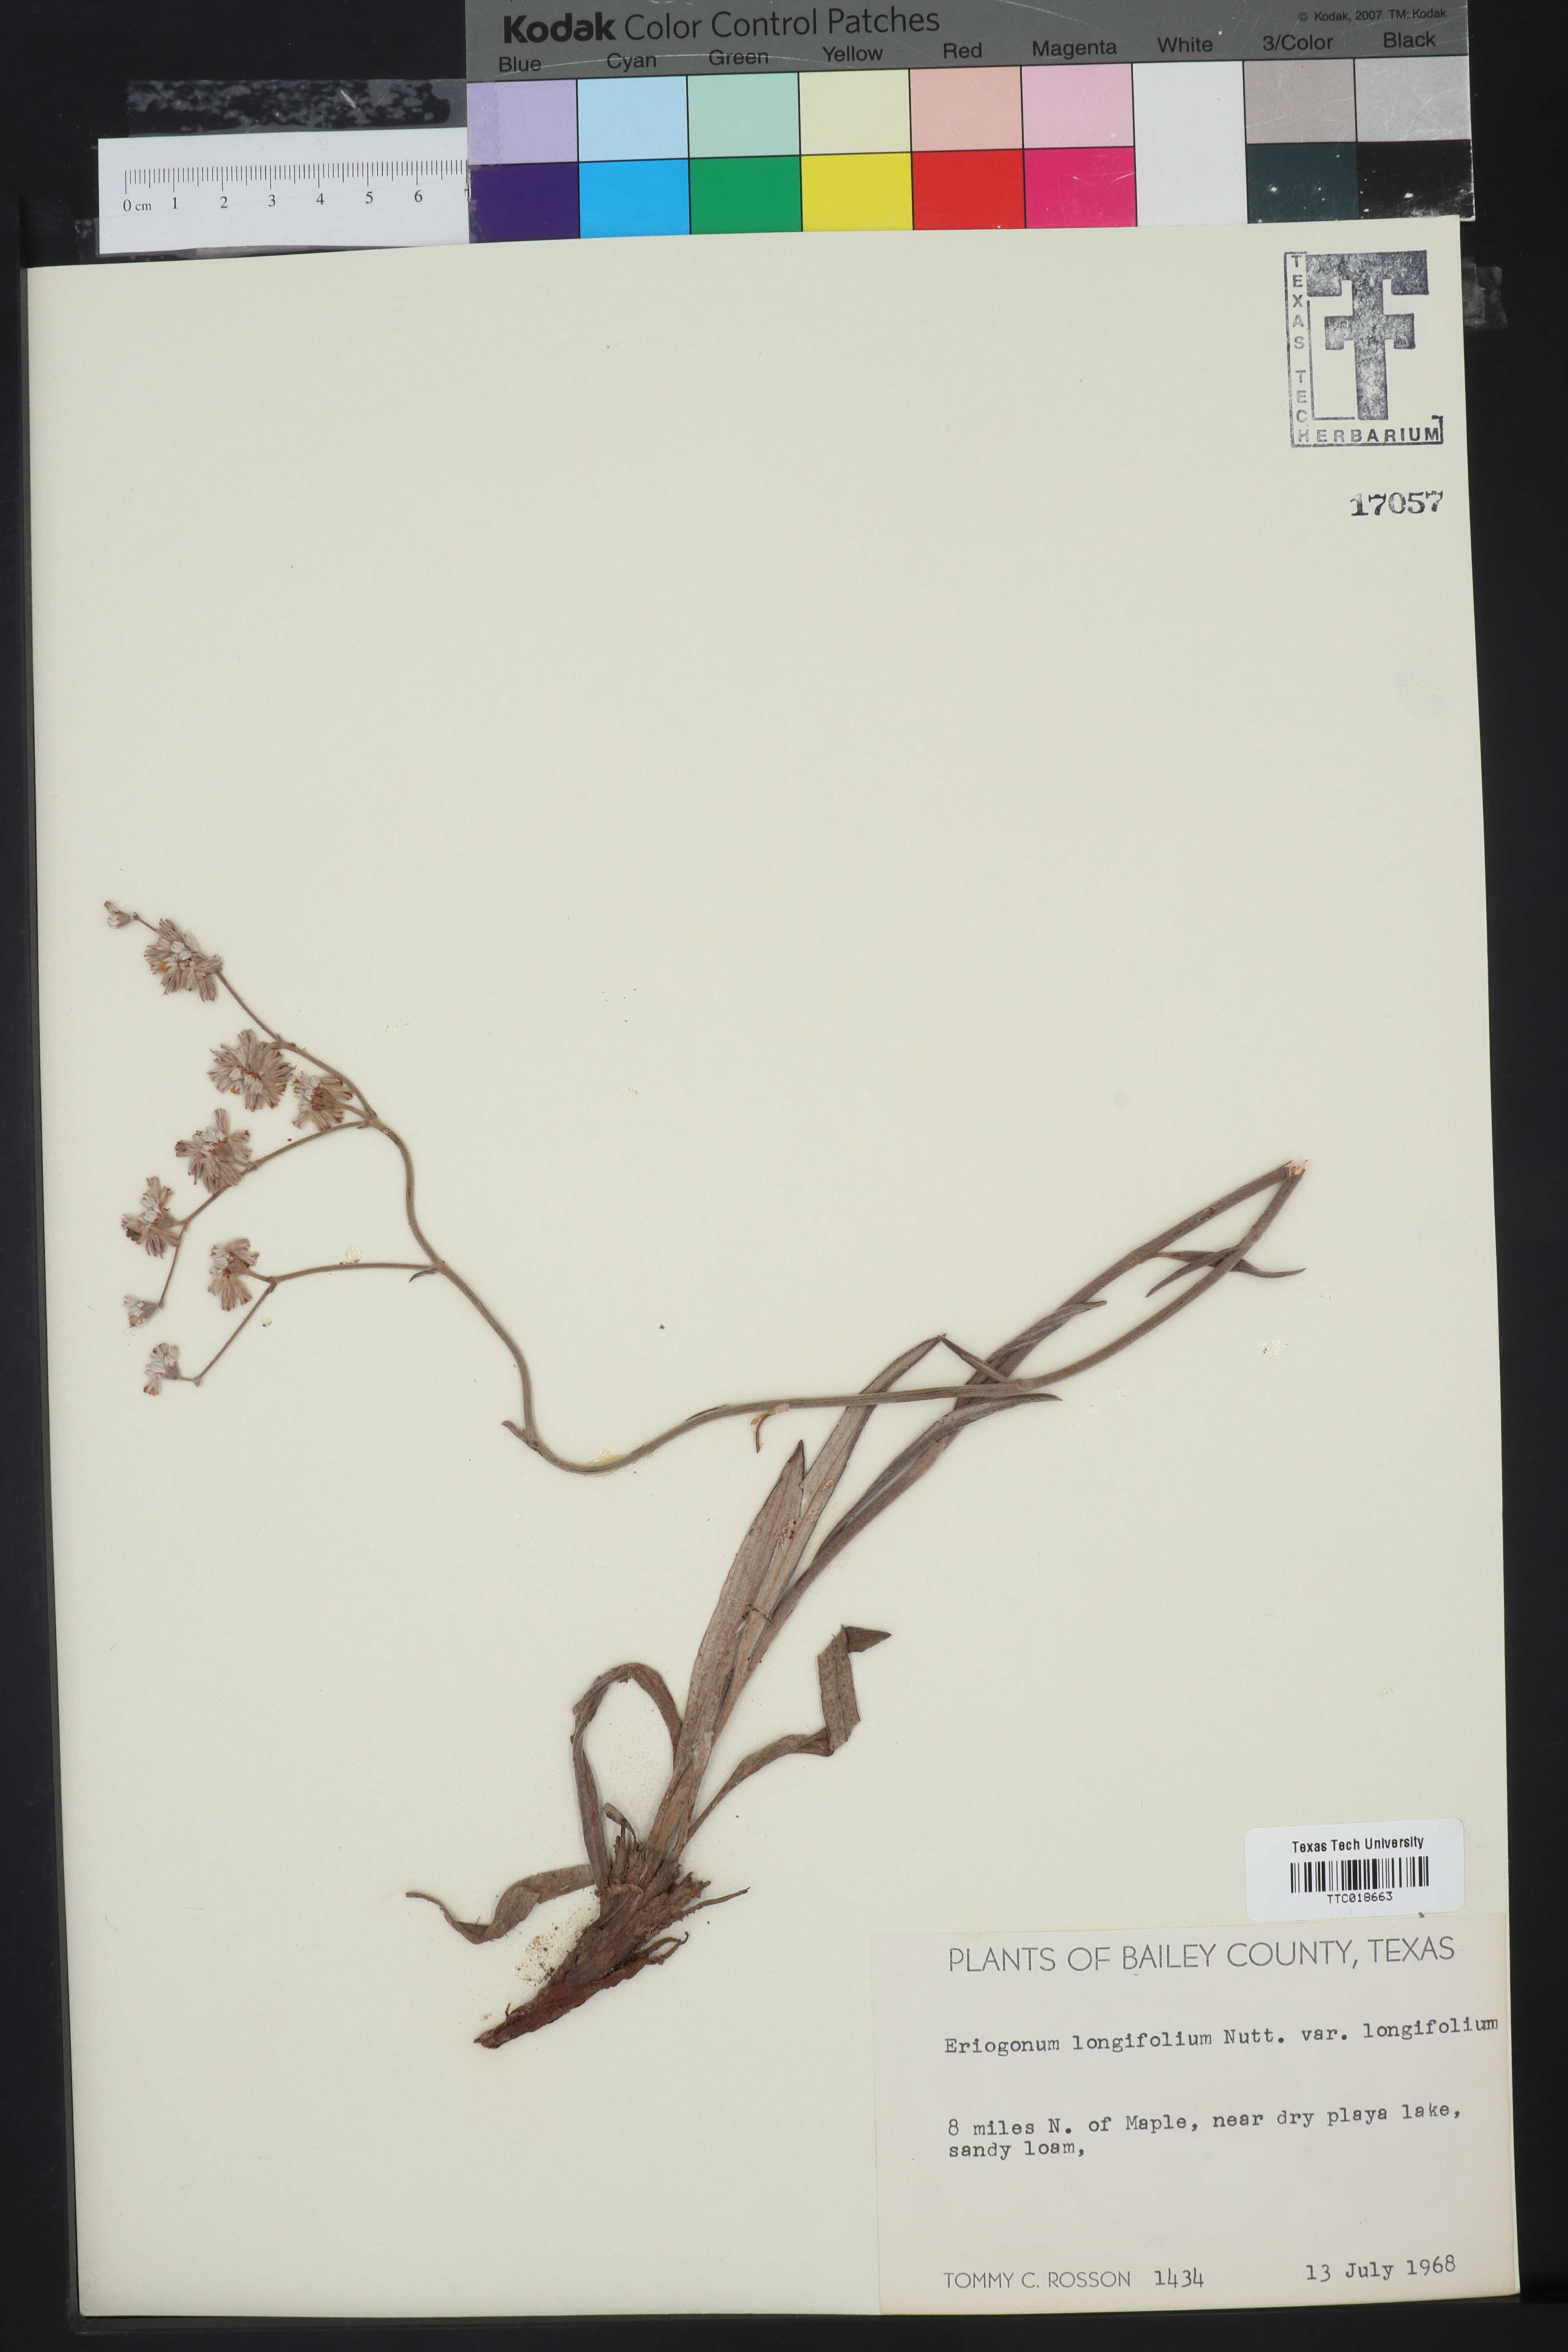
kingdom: Plantae
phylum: Tracheophyta
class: Magnoliopsida
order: Caryophyllales
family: Polygonaceae
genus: Eriogonum
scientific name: Eriogonum longifolium
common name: Longleaf wild buckwheat
